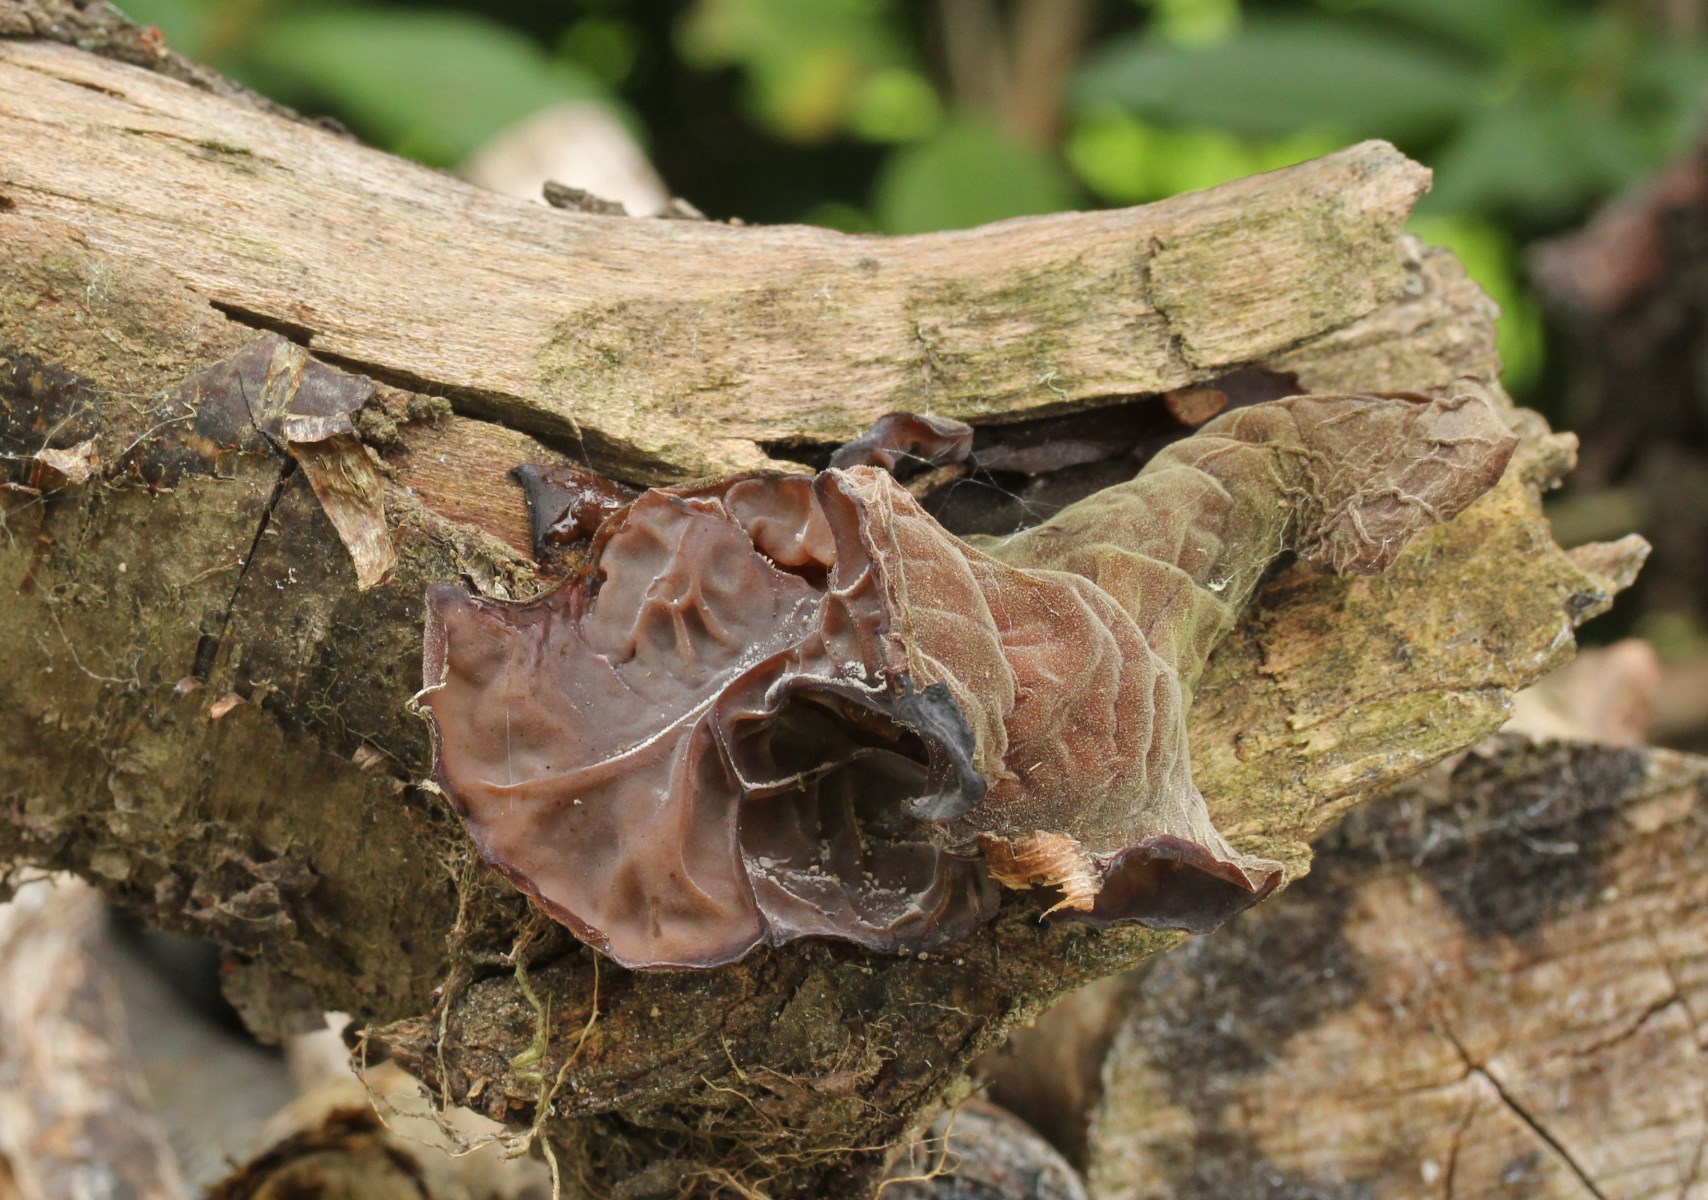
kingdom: Fungi
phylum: Basidiomycota
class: Agaricomycetes
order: Auriculariales
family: Auriculariaceae
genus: Auricularia
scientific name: Auricularia auricula-judae
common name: almindelig judasøre
